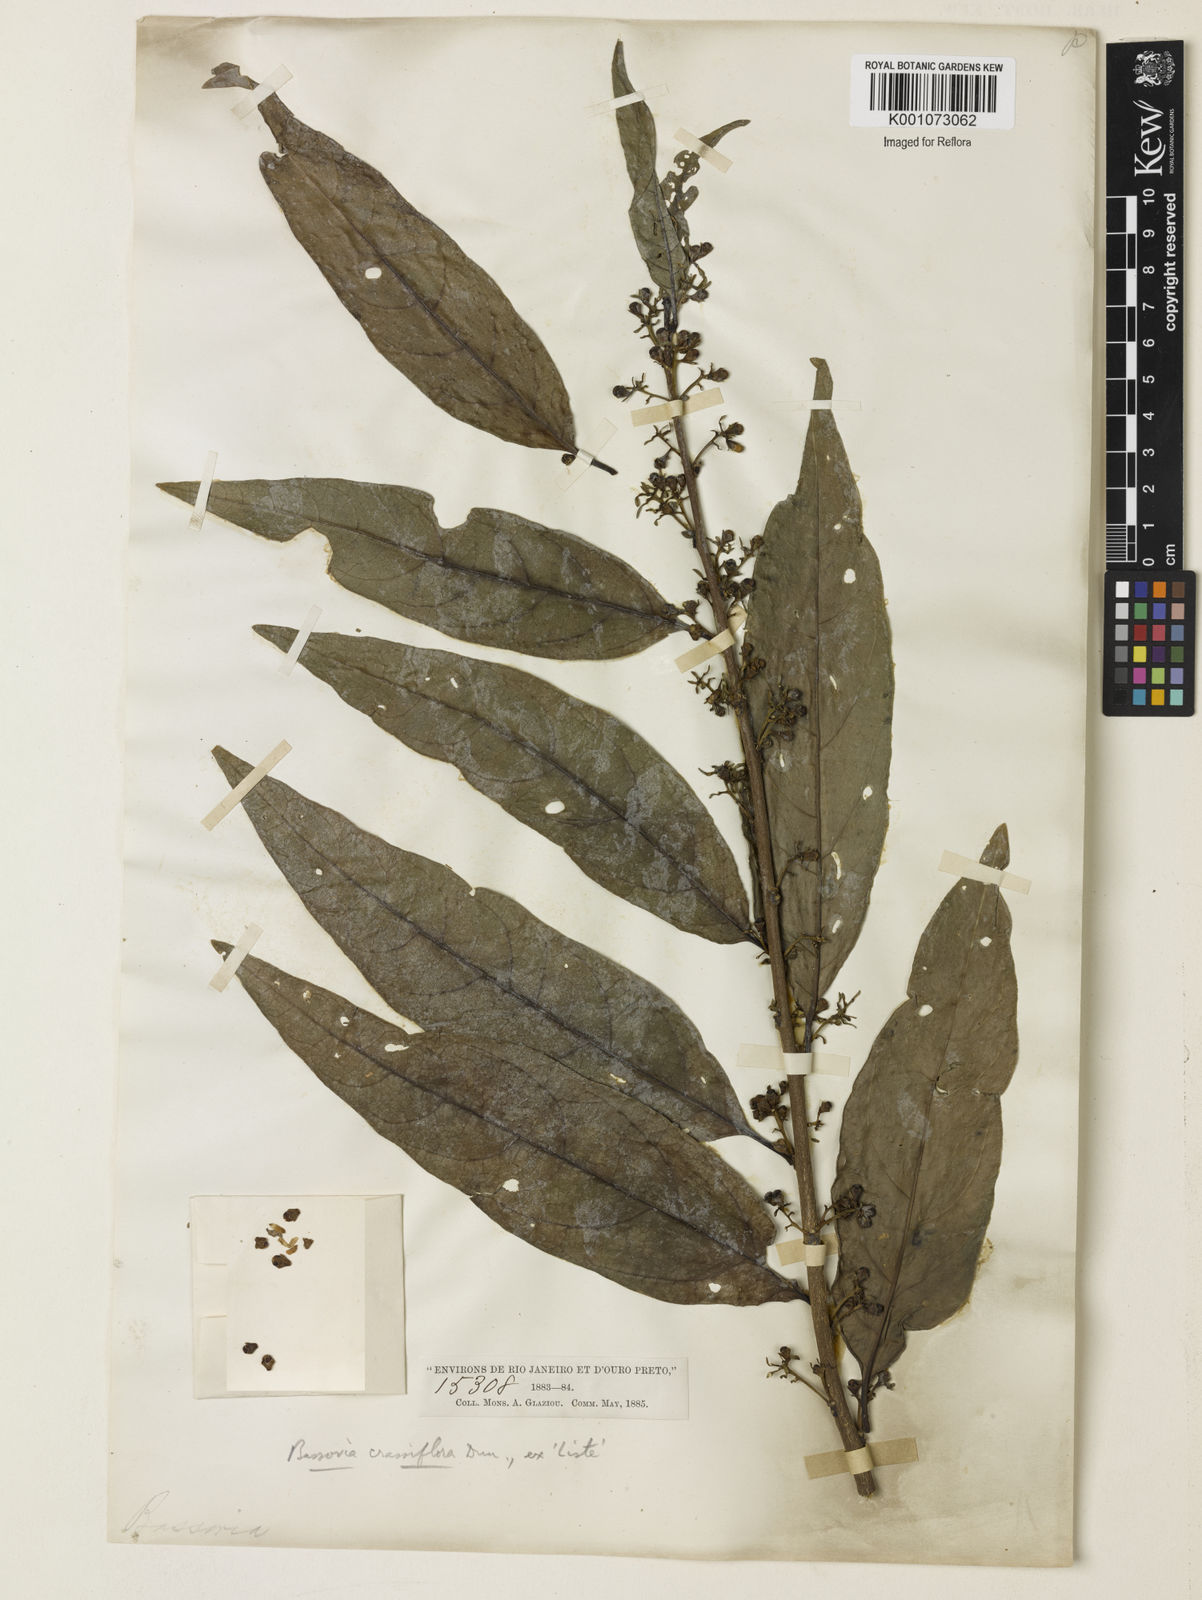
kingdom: Plantae
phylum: Tracheophyta
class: Magnoliopsida
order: Solanales
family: Solanaceae
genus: Witheringia
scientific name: Witheringia
